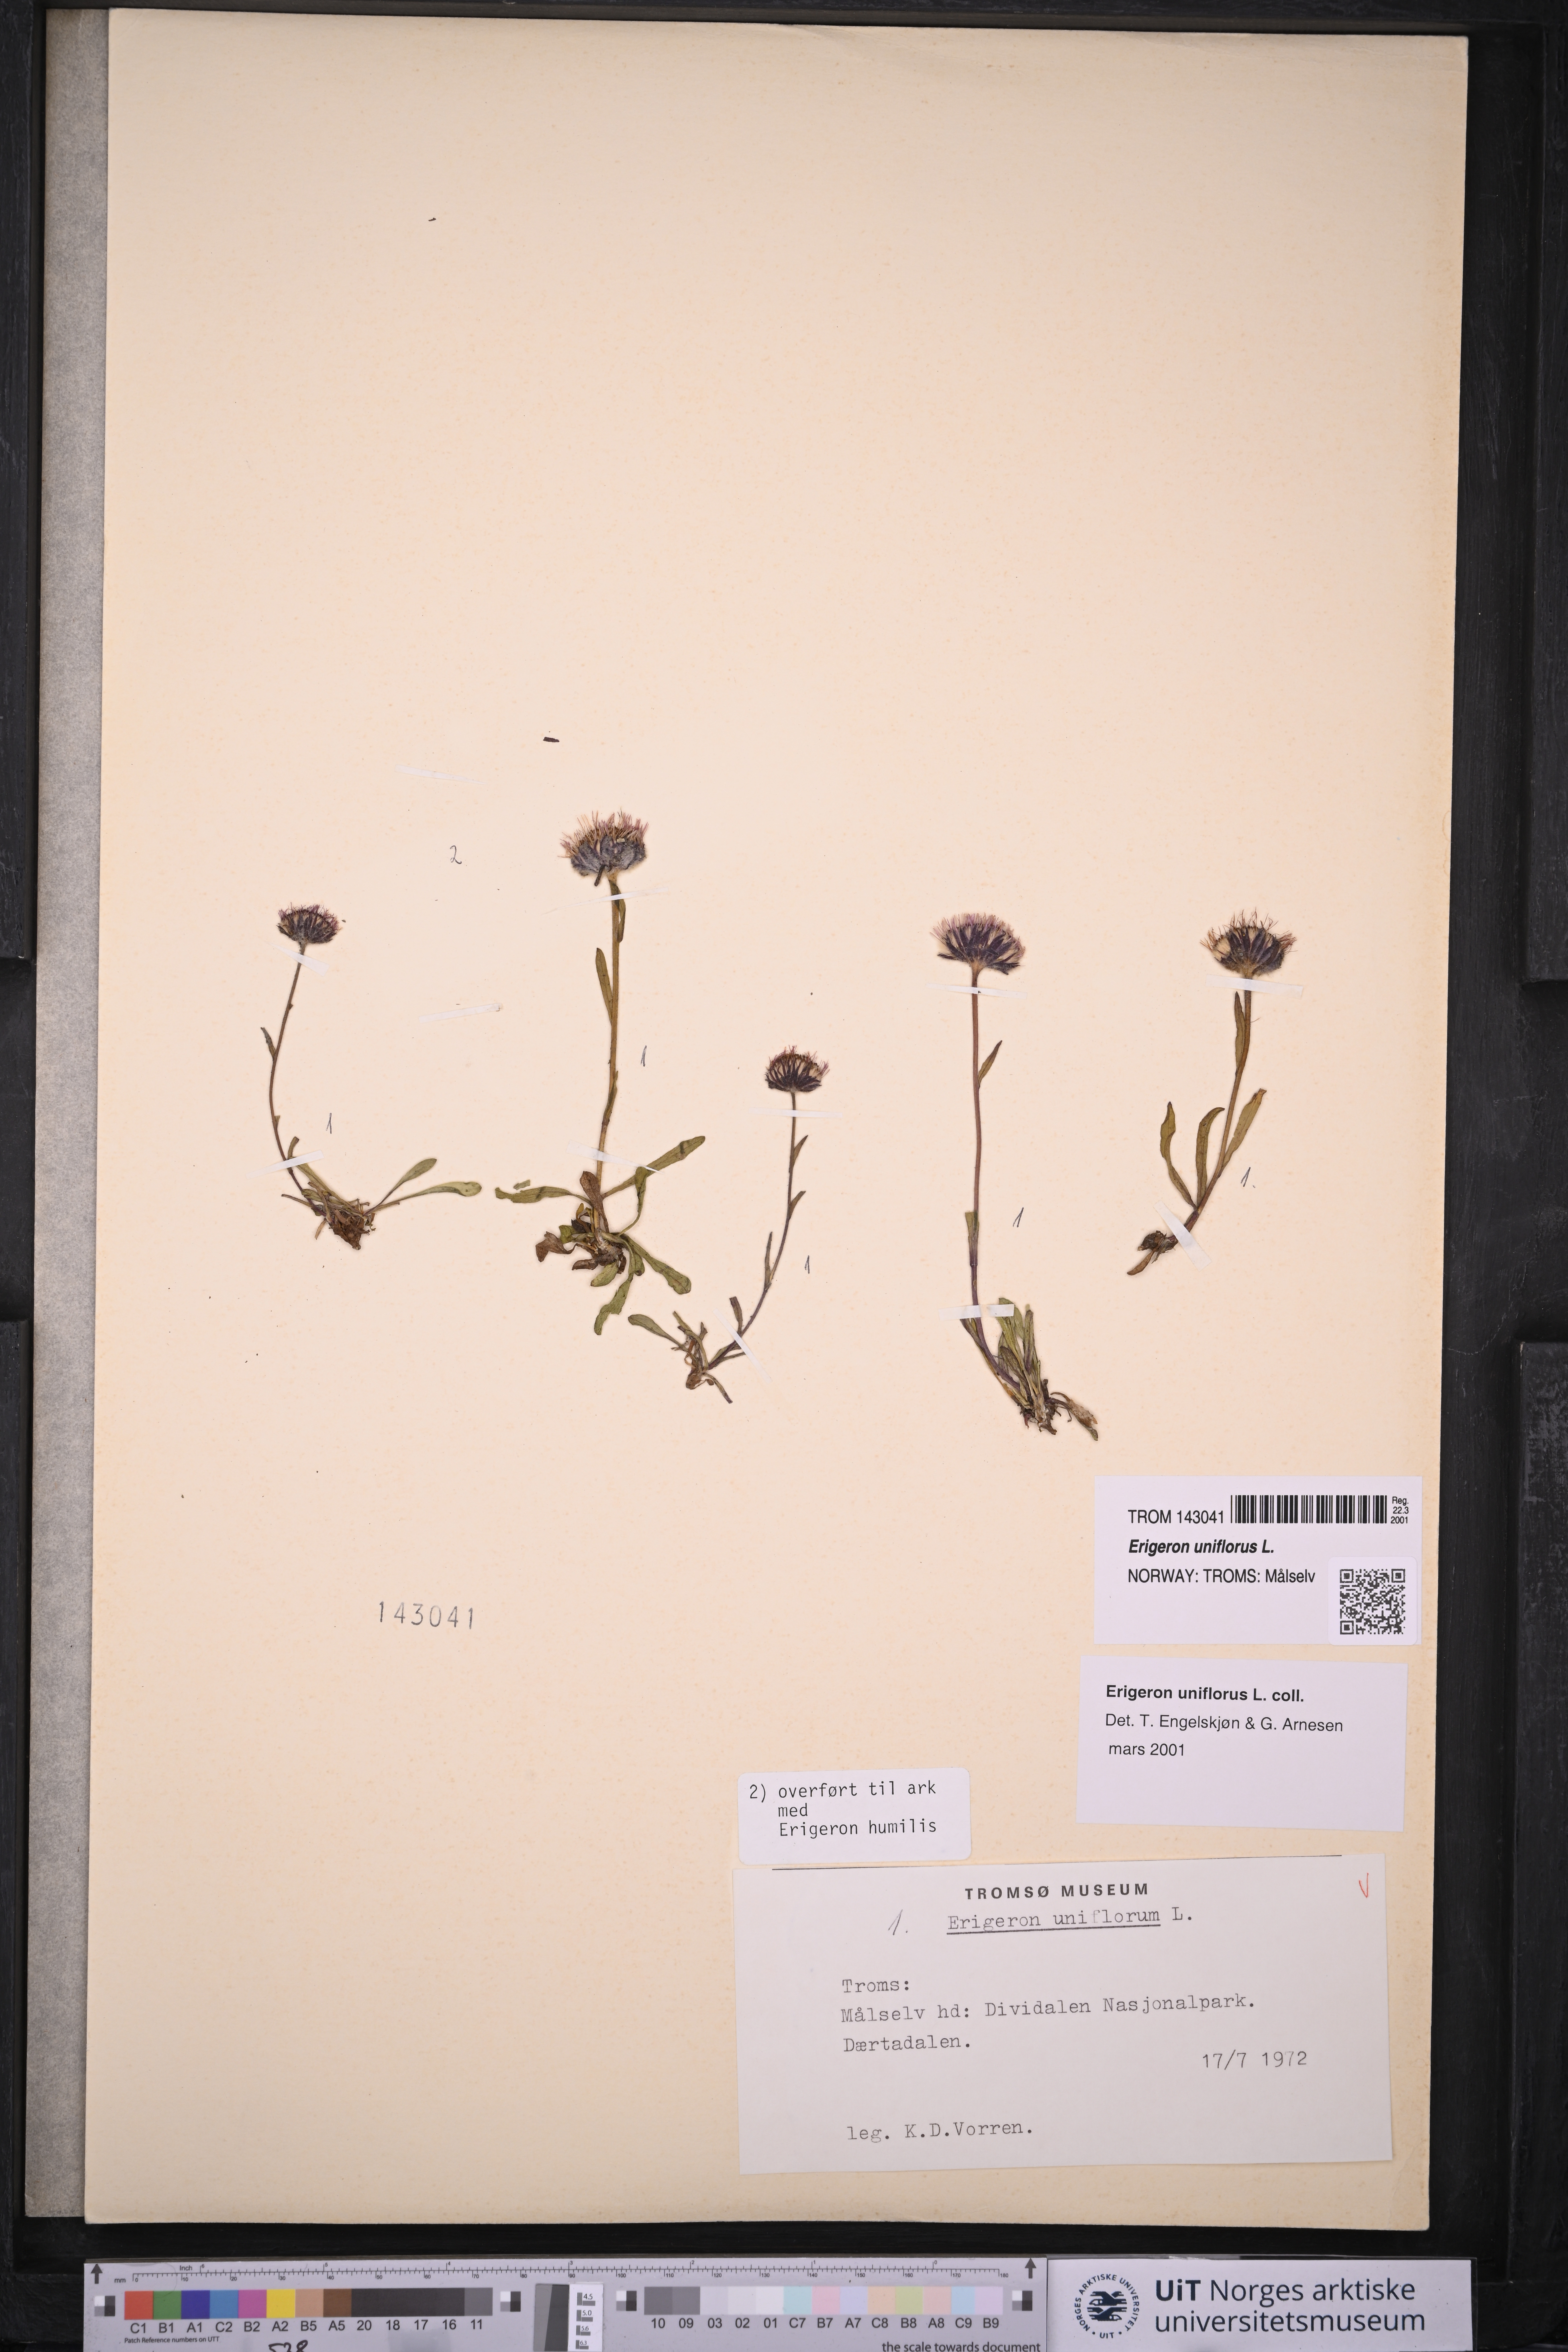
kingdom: Plantae
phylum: Tracheophyta
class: Magnoliopsida
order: Asterales
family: Asteraceae
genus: Erigeron
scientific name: Erigeron uniflorus
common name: Northern daisy
